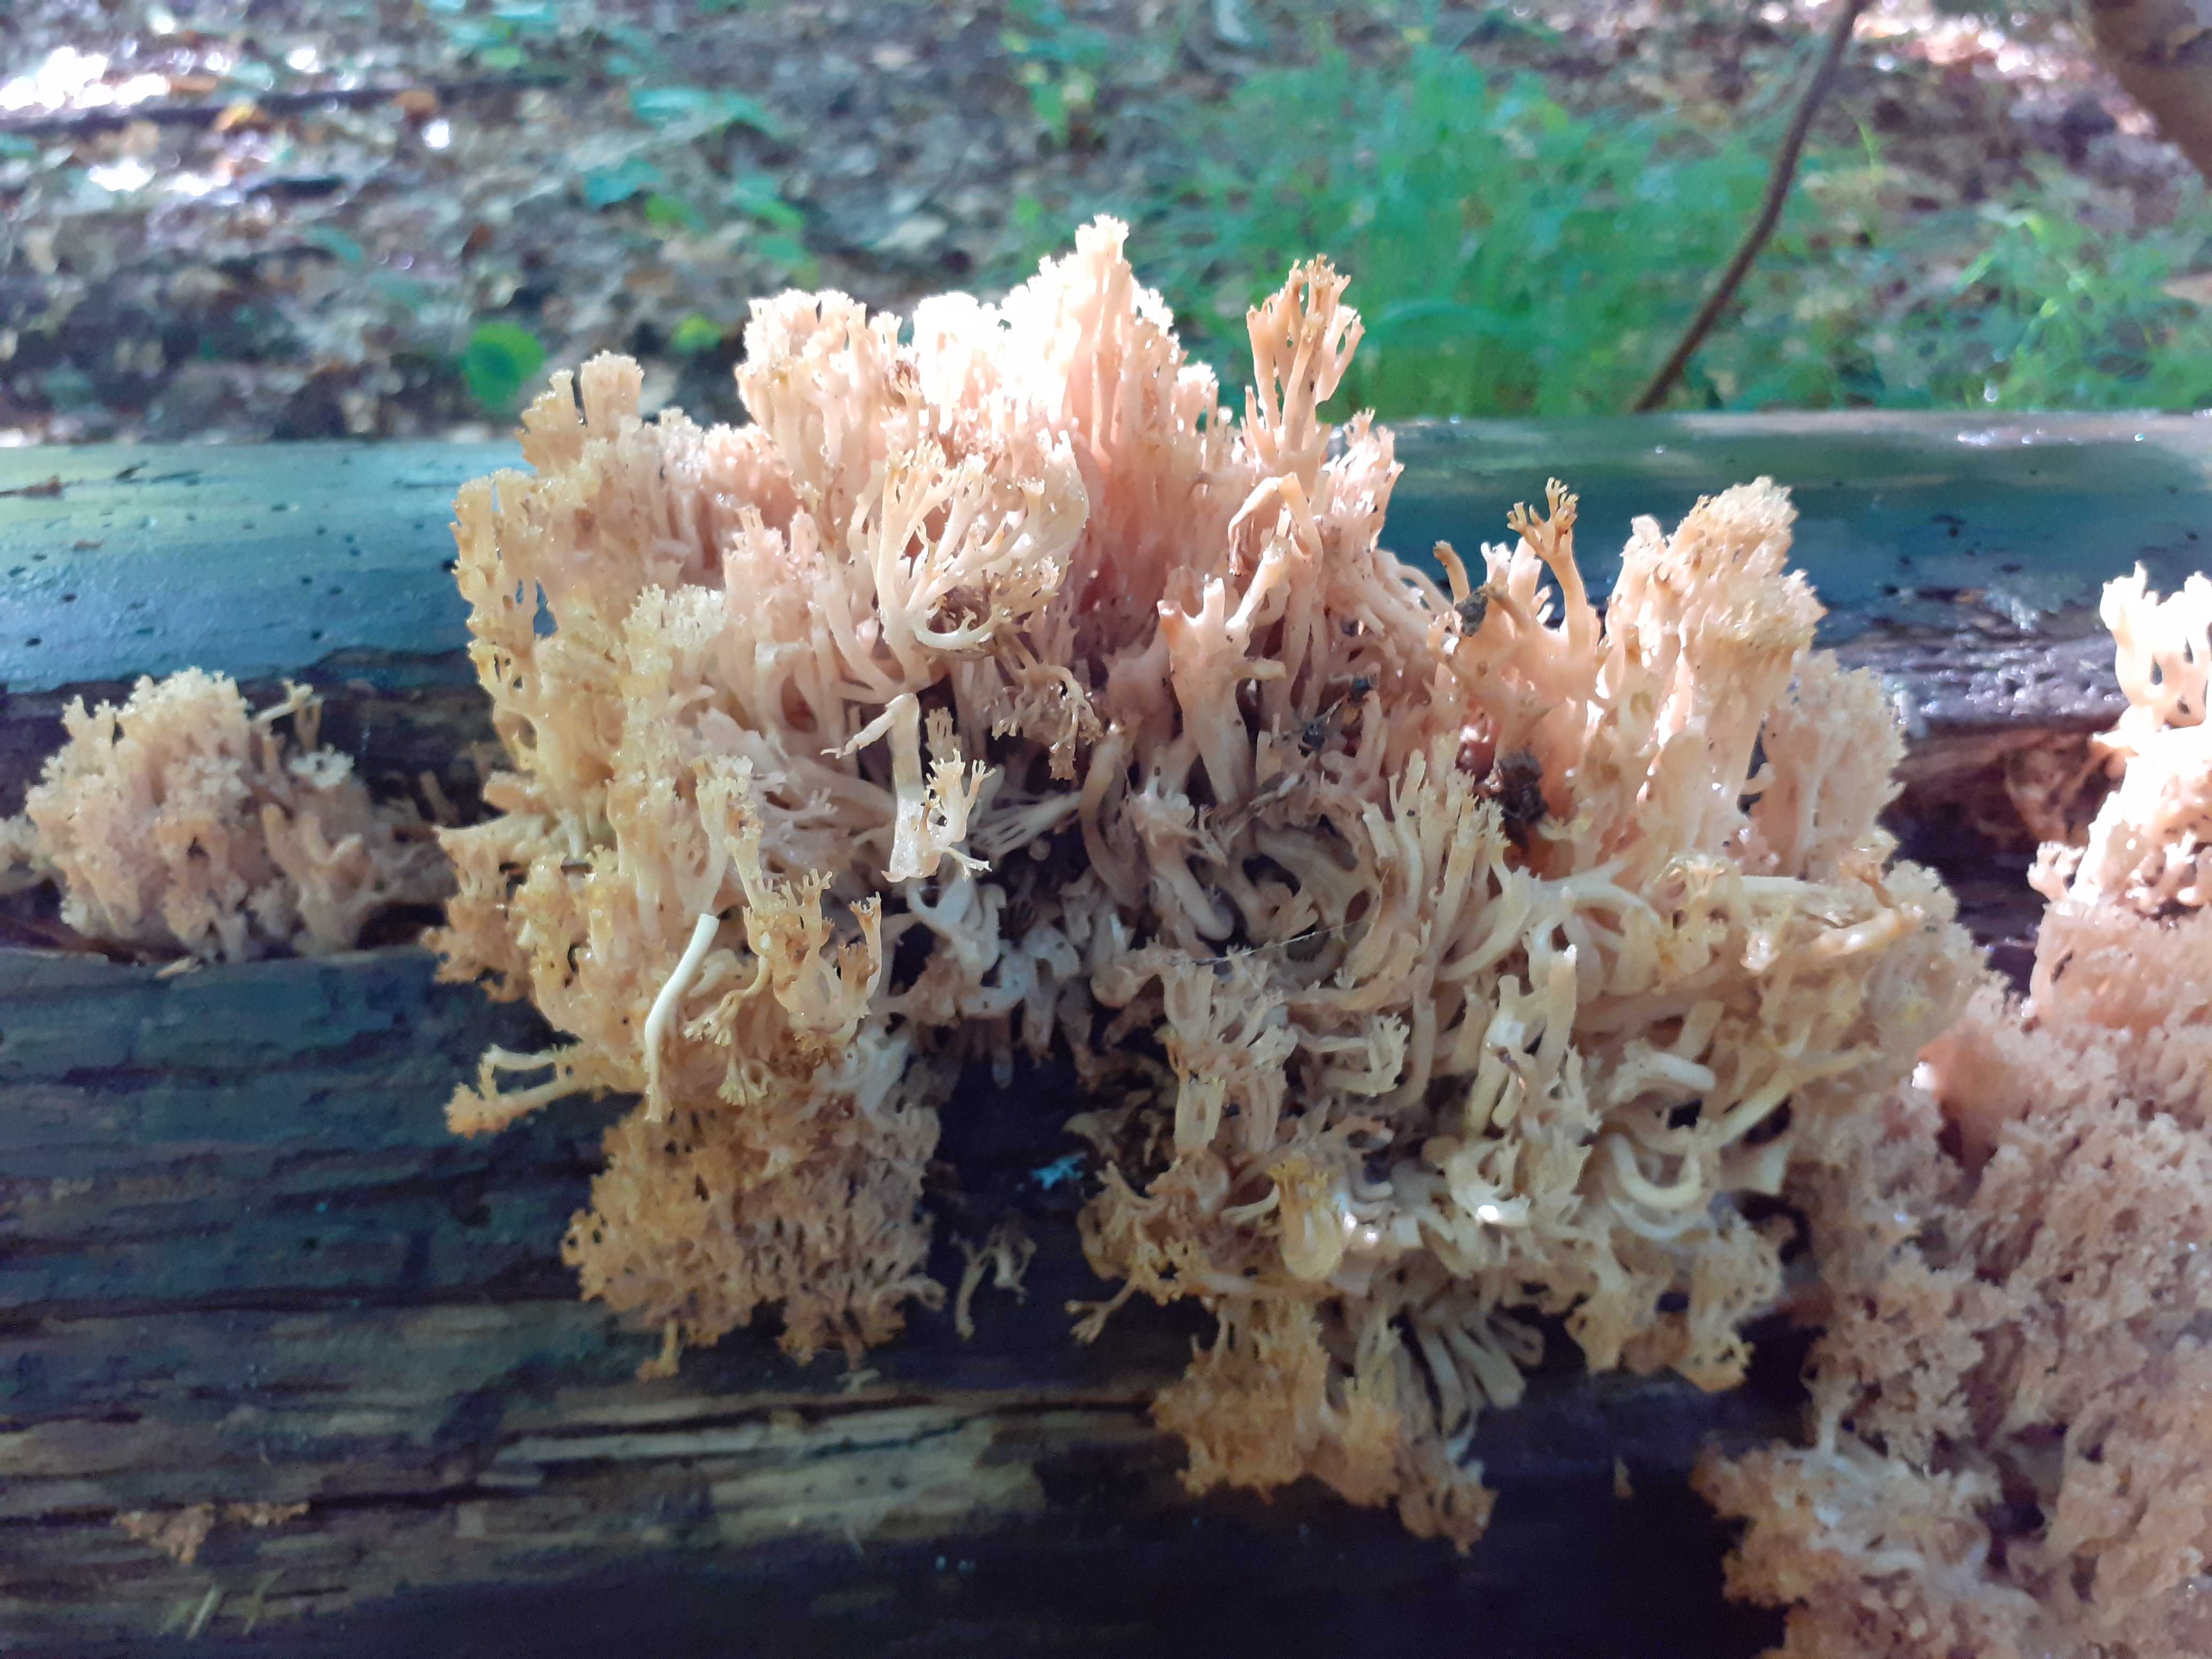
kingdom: Fungi
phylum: Basidiomycota
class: Agaricomycetes
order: Russulales
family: Auriscalpiaceae
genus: Artomyces
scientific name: Artomyces pyxidatus
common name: kandelabersvamp
